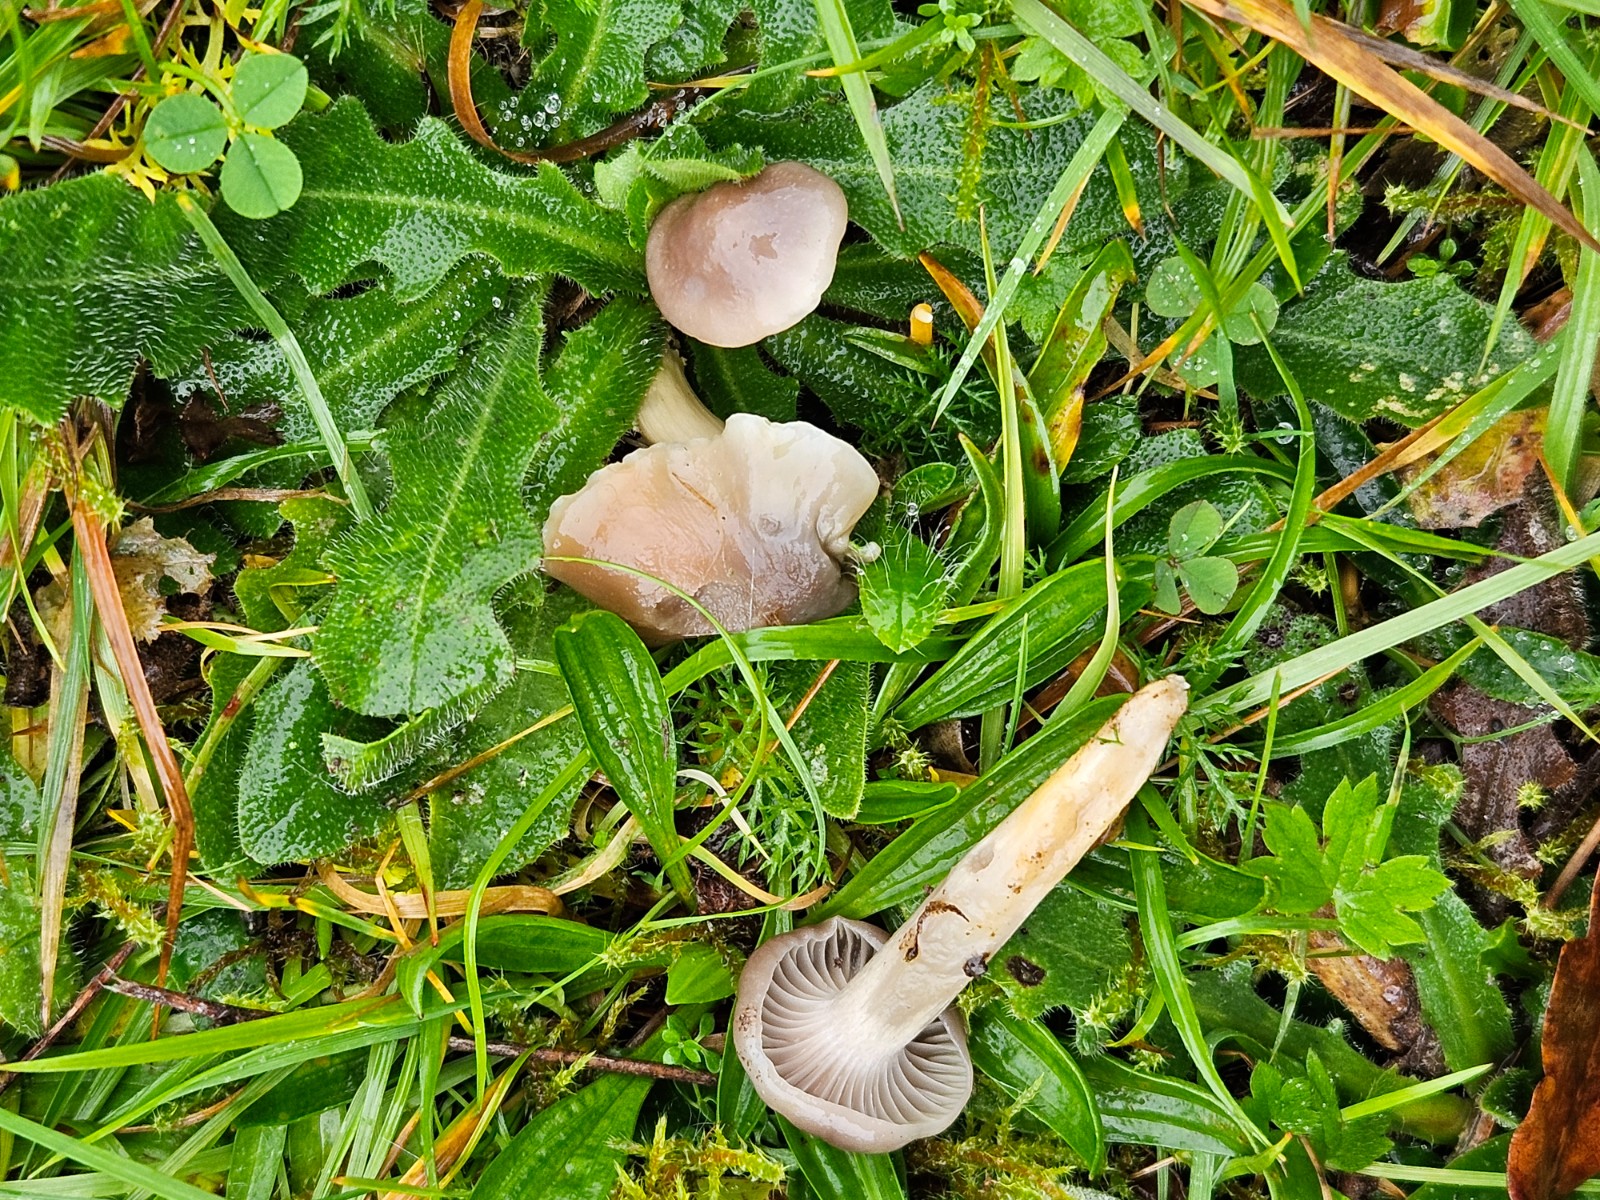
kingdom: Fungi
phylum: Basidiomycota
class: Agaricomycetes
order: Agaricales
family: Hygrophoraceae
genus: Cuphophyllus
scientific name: Cuphophyllus flavipes
